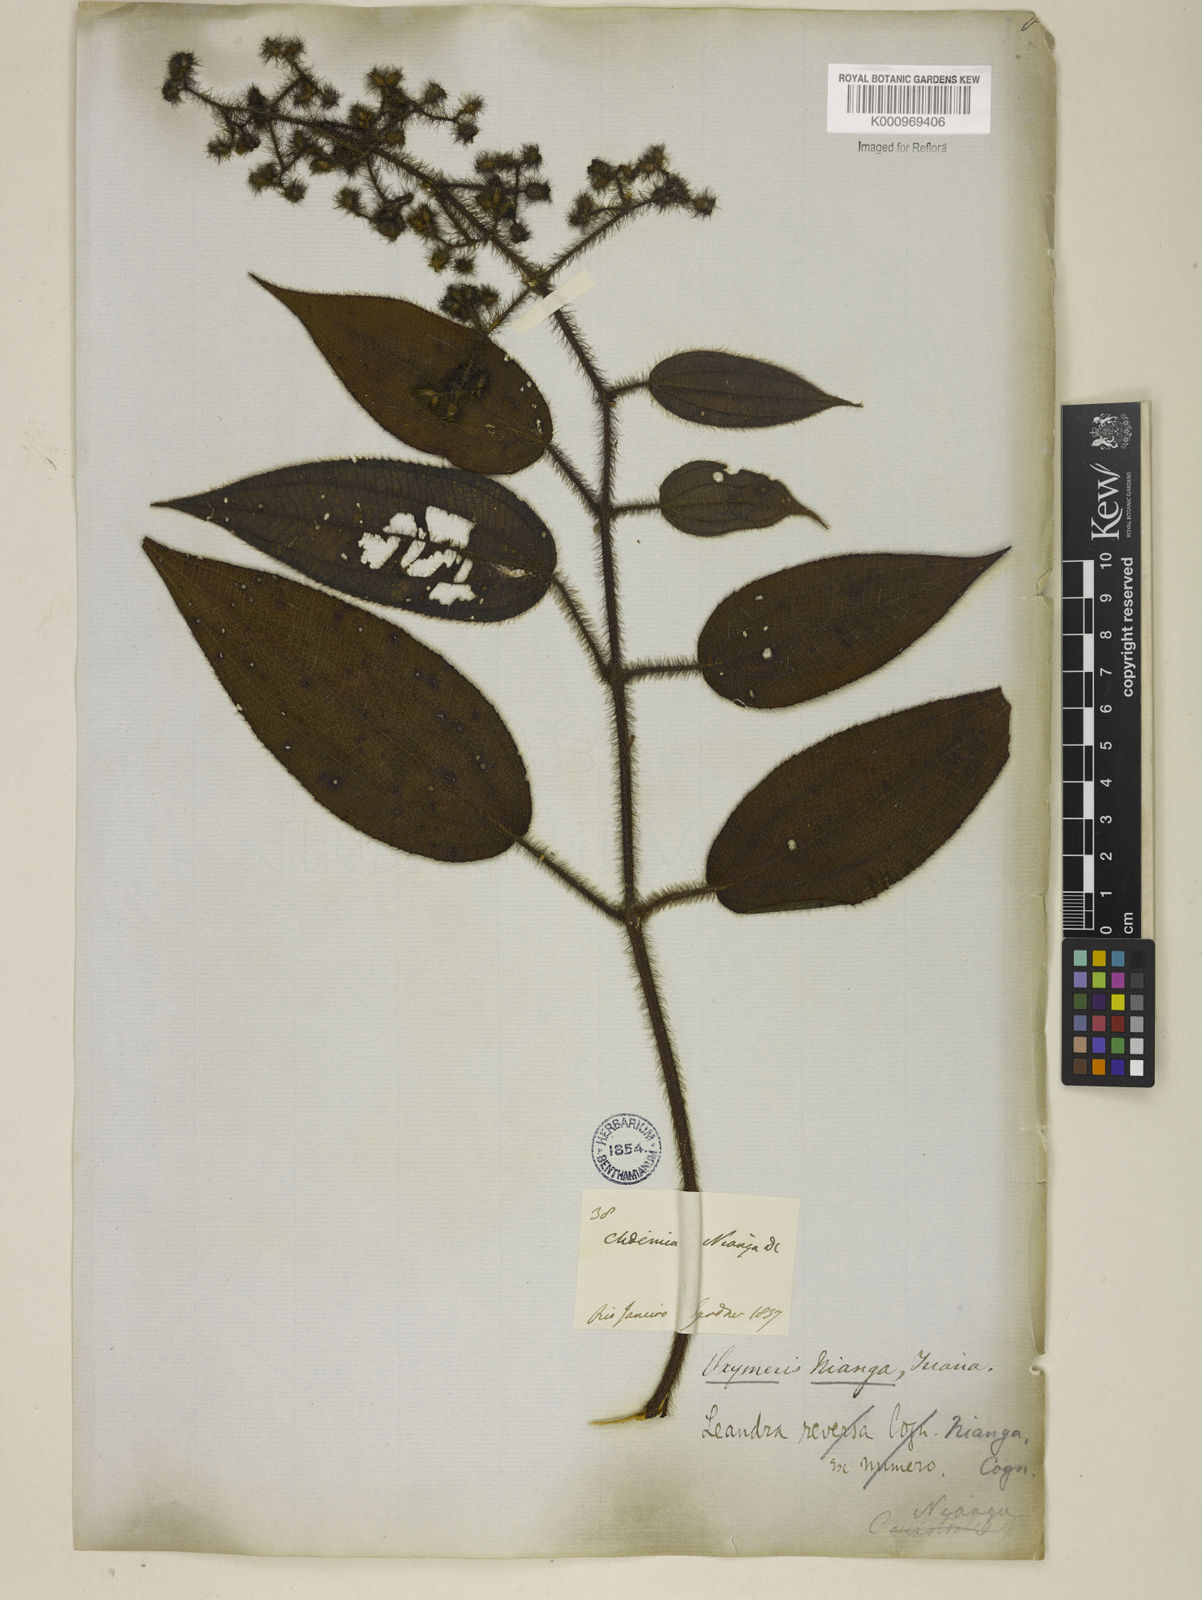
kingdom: Plantae
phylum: Tracheophyta
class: Magnoliopsida
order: Myrtales
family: Melastomataceae
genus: Miconia
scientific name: Miconia nianga
